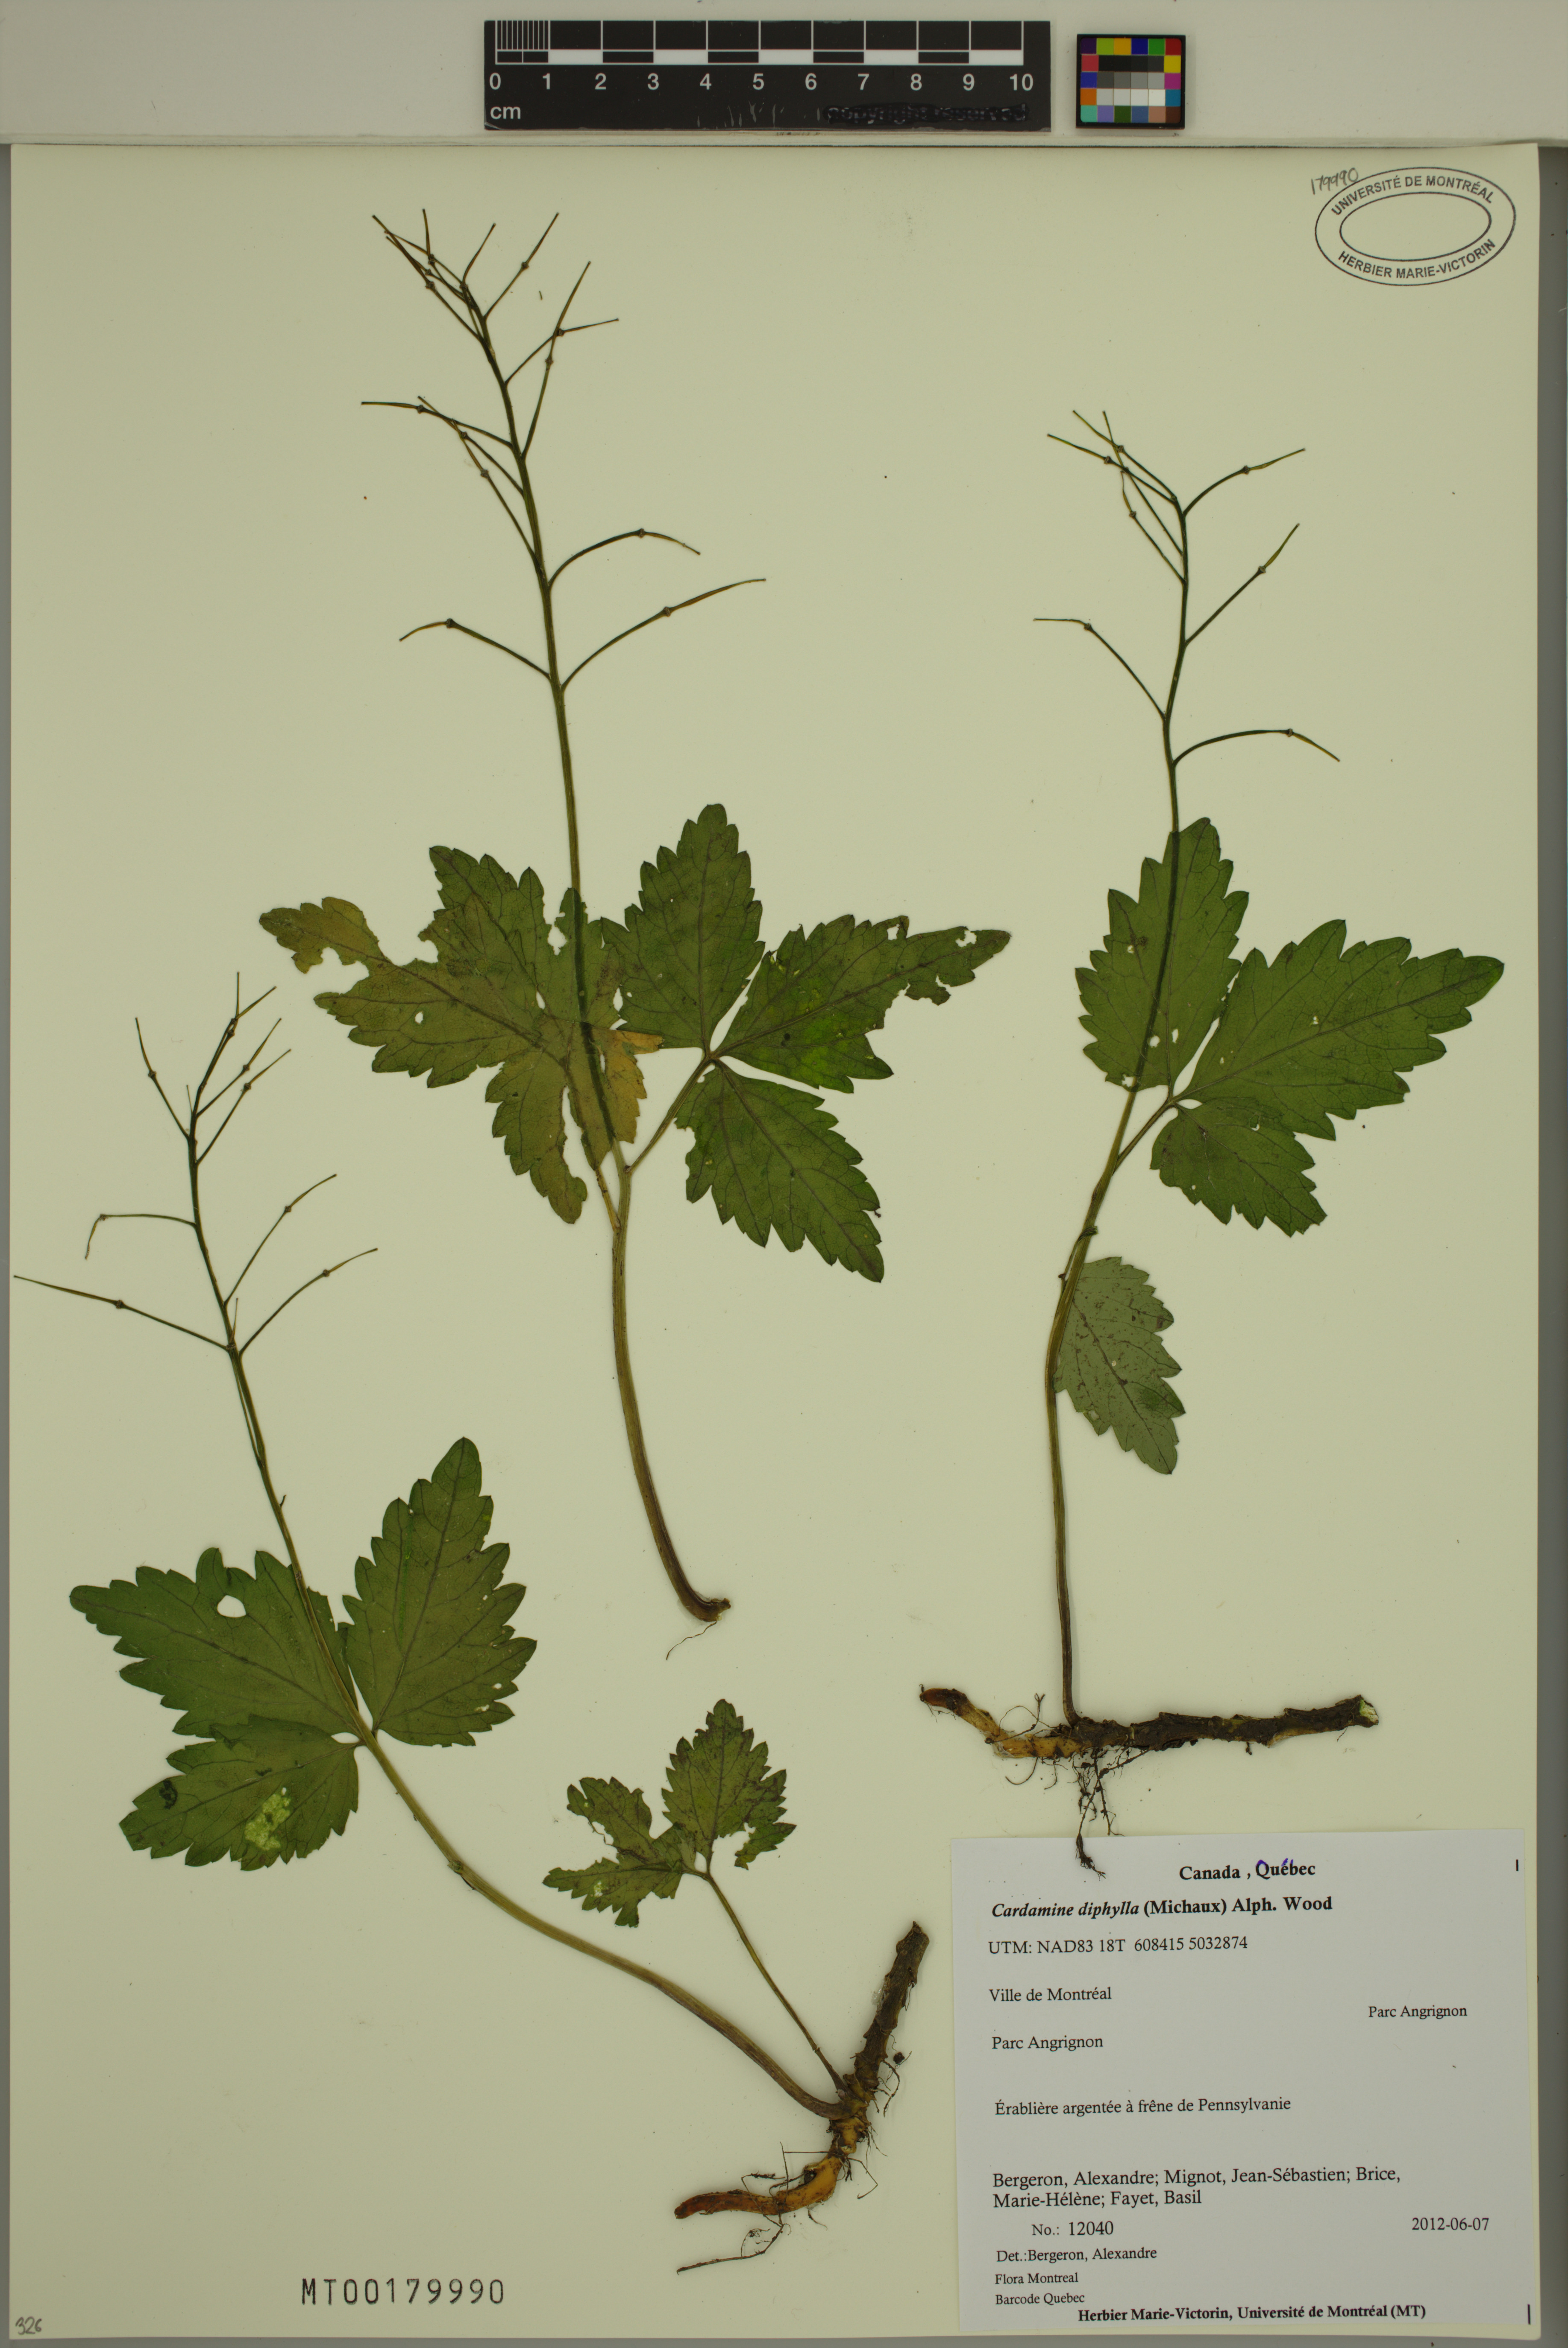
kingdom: Plantae
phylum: Tracheophyta
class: Magnoliopsida
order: Brassicales
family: Brassicaceae
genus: Cardamine
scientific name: Cardamine diphylla
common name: Broad-leaved toothwort
